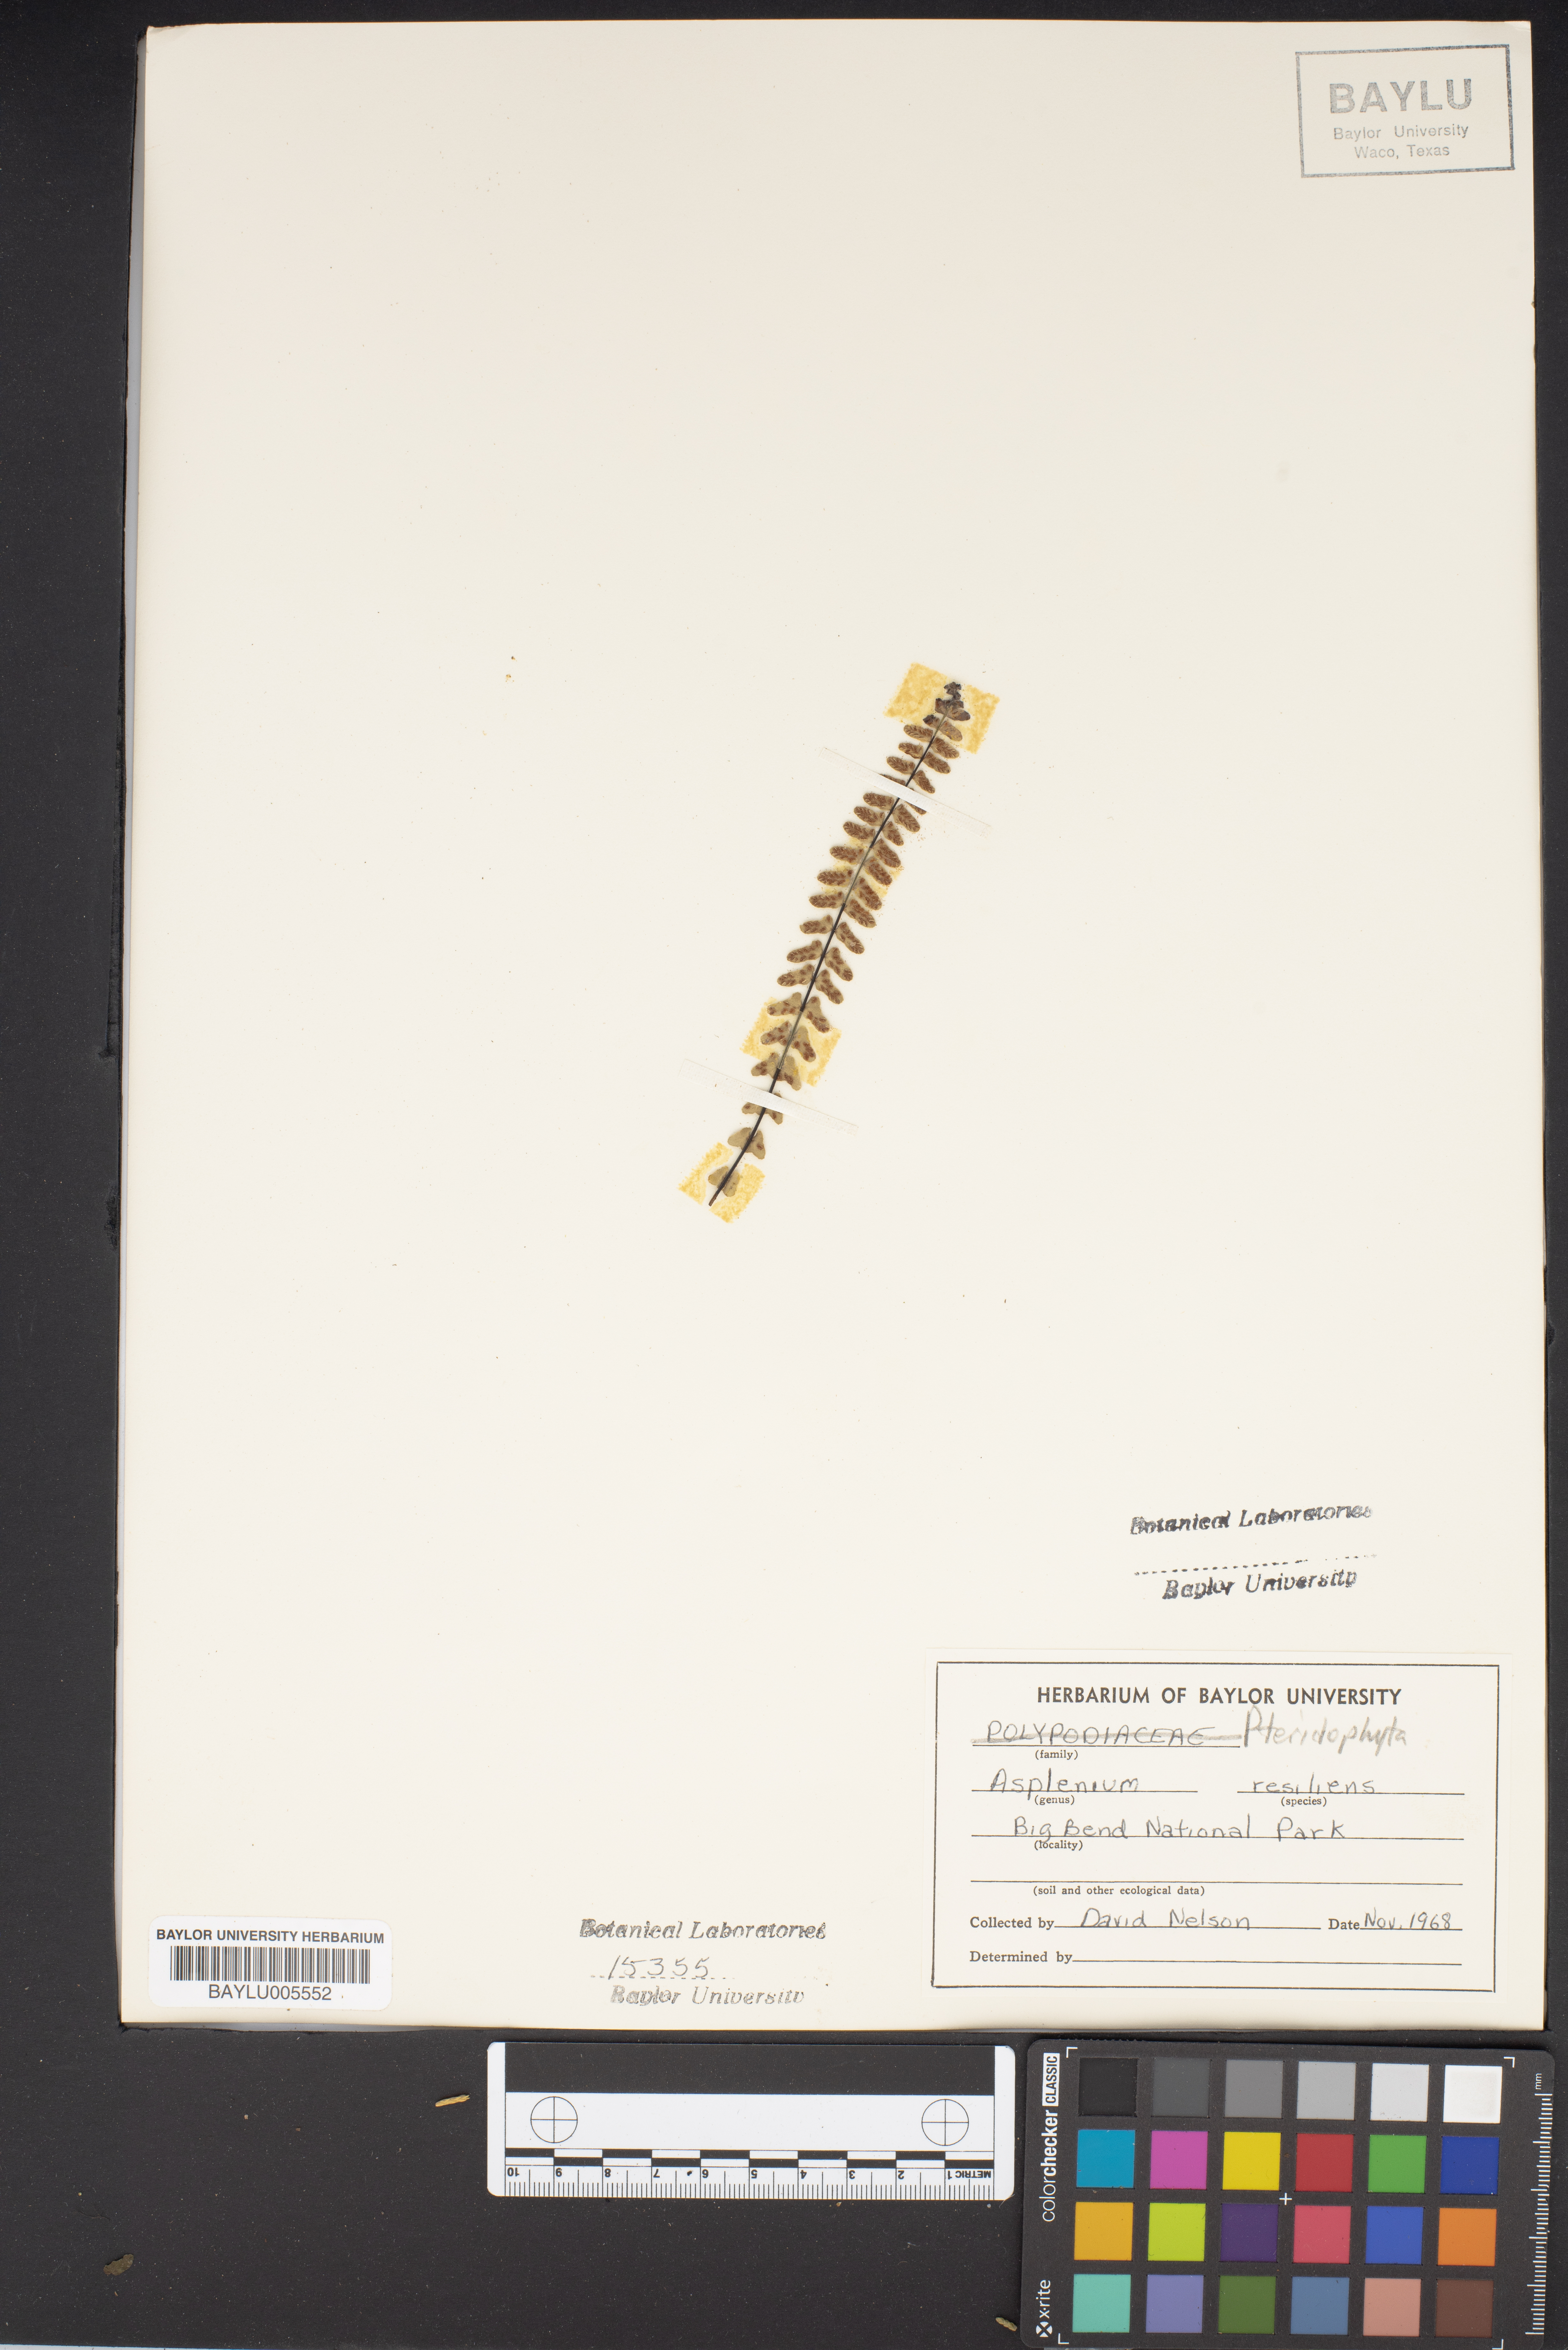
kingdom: Plantae
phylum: Tracheophyta
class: Polypodiopsida
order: Polypodiales
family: Aspleniaceae
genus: Asplenium
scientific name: Asplenium resiliens
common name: Blackstem spleenwort
